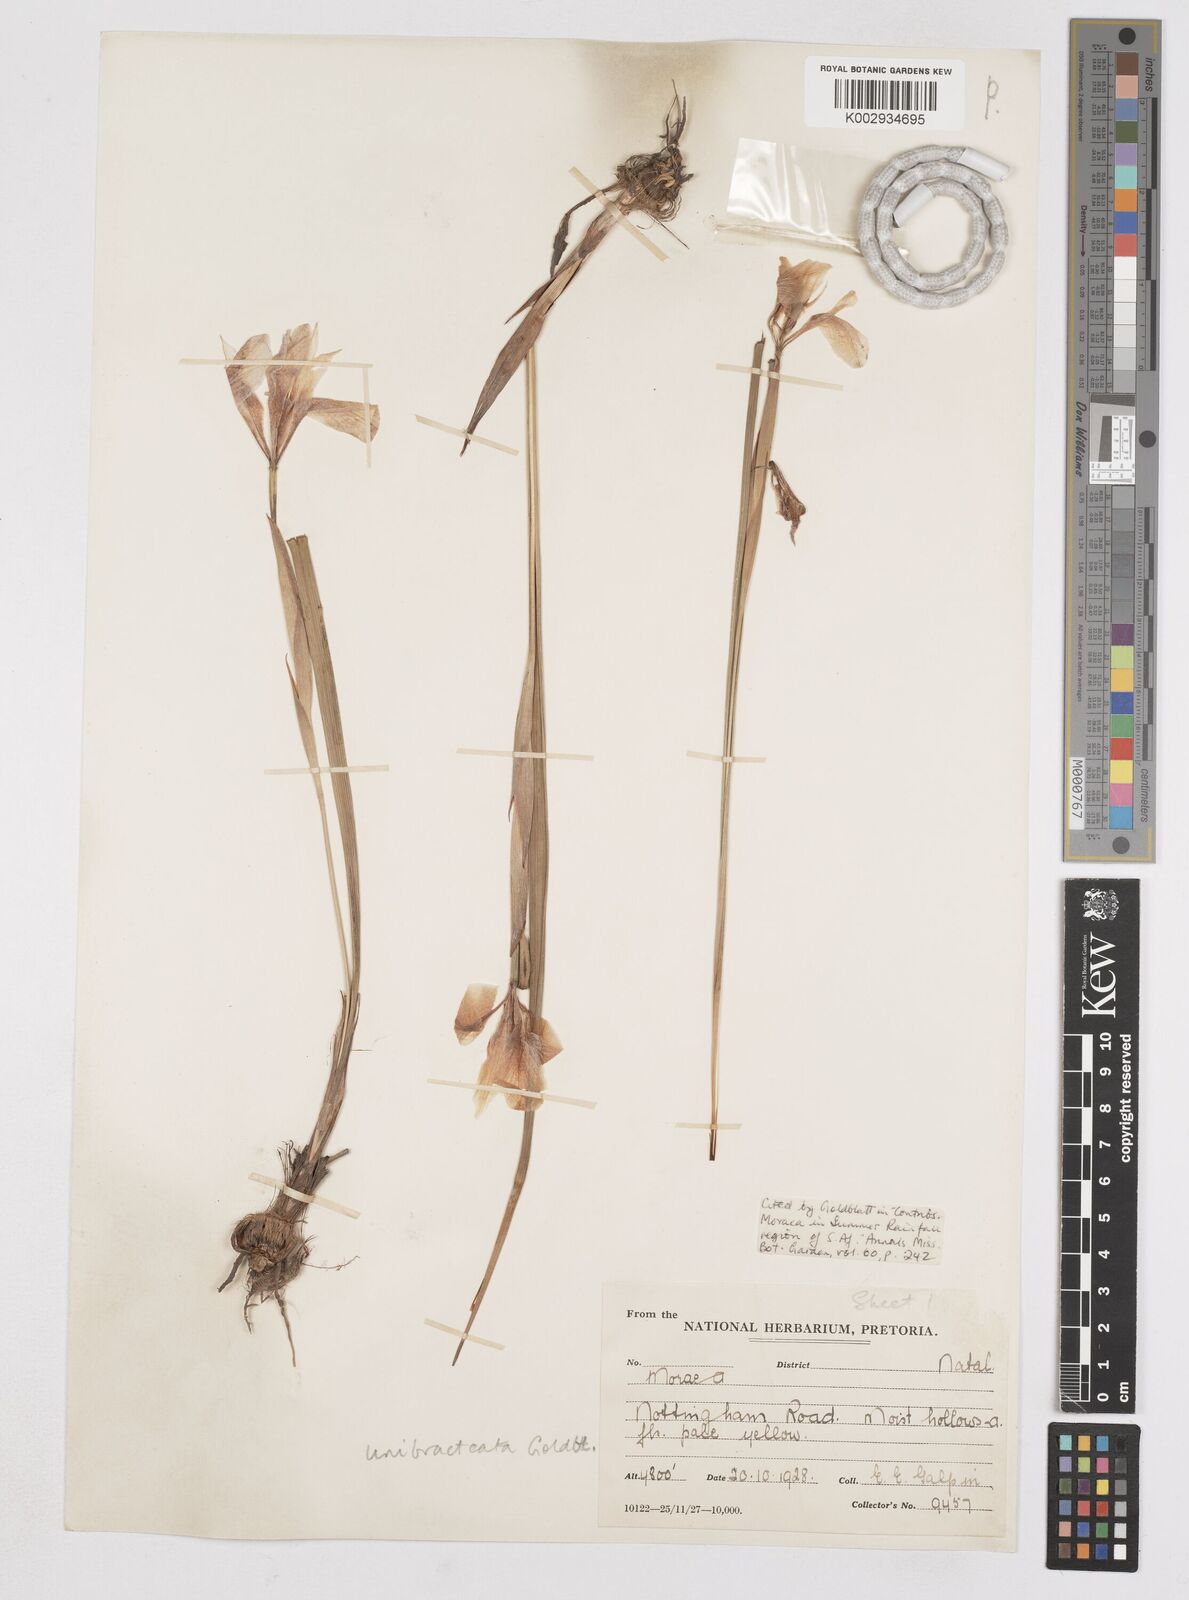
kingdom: Plantae
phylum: Tracheophyta
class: Liliopsida
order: Asparagales
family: Iridaceae
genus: Moraea
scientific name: Moraea unibracteata
